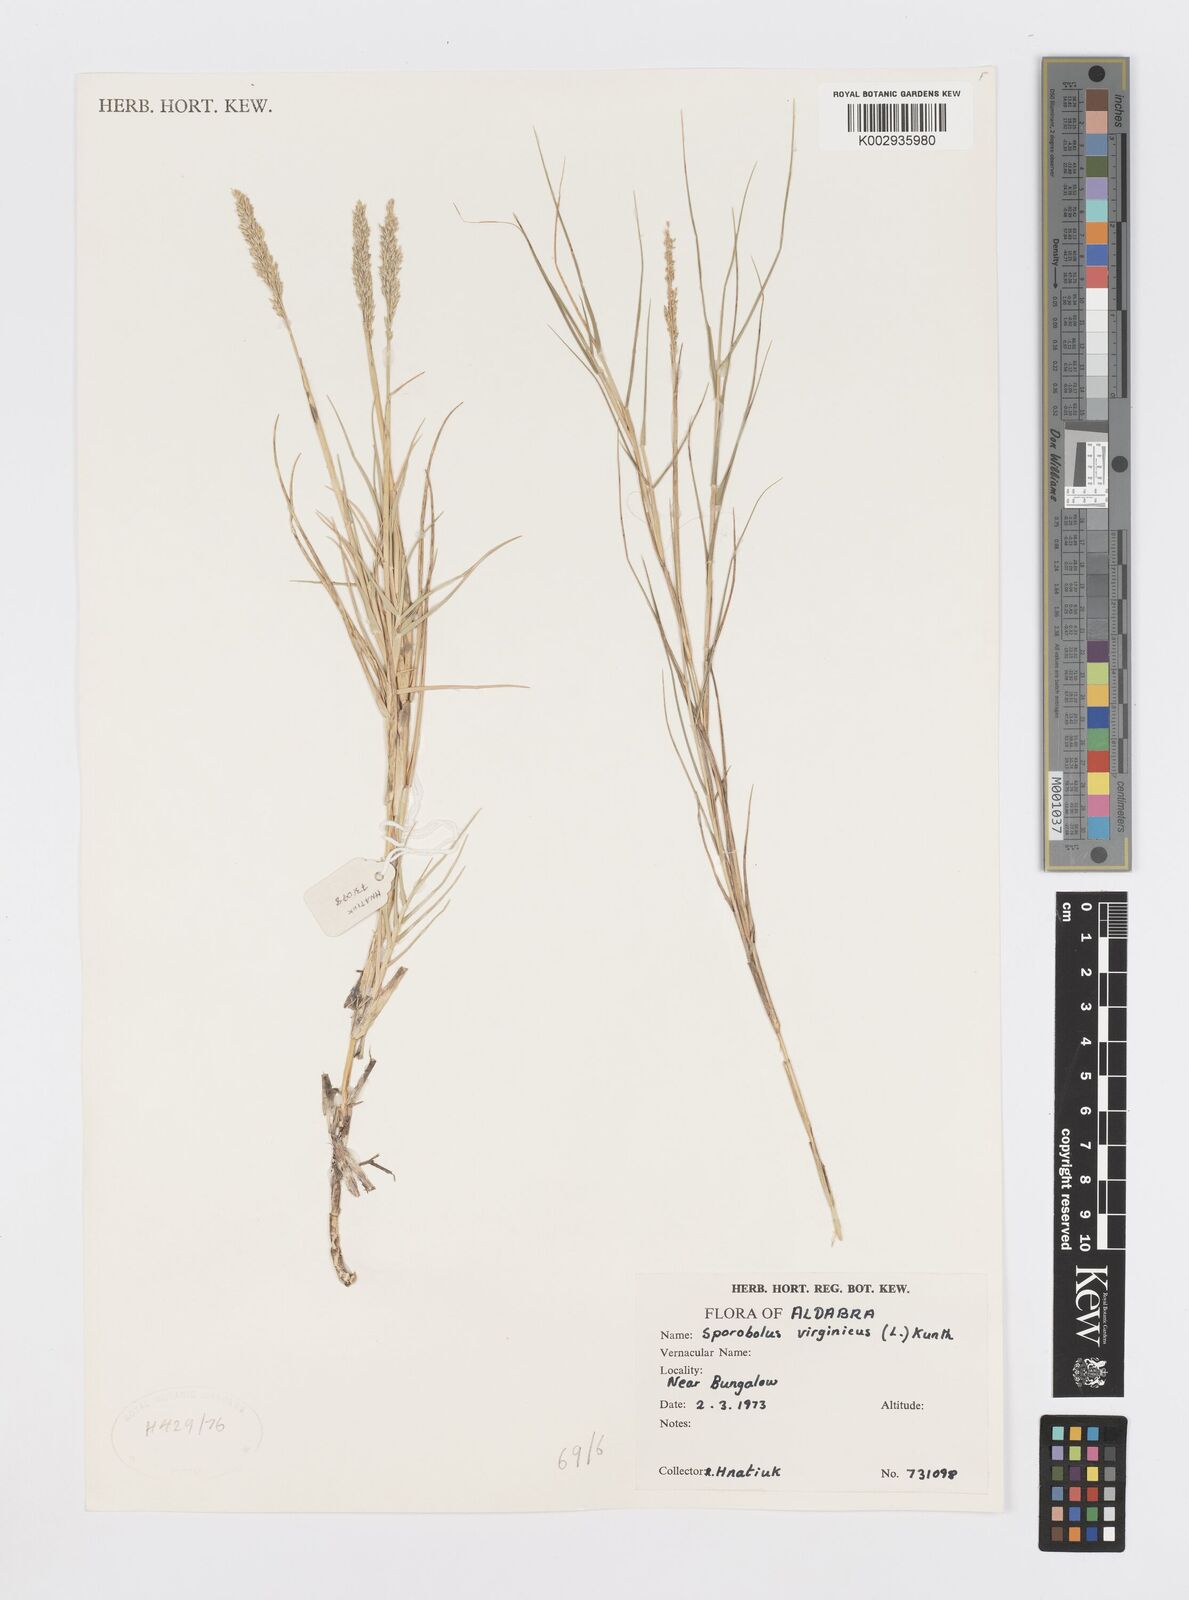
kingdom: Plantae
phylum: Tracheophyta
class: Liliopsida
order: Poales
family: Poaceae
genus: Sporobolus
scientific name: Sporobolus virginicus
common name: Beach dropseed
